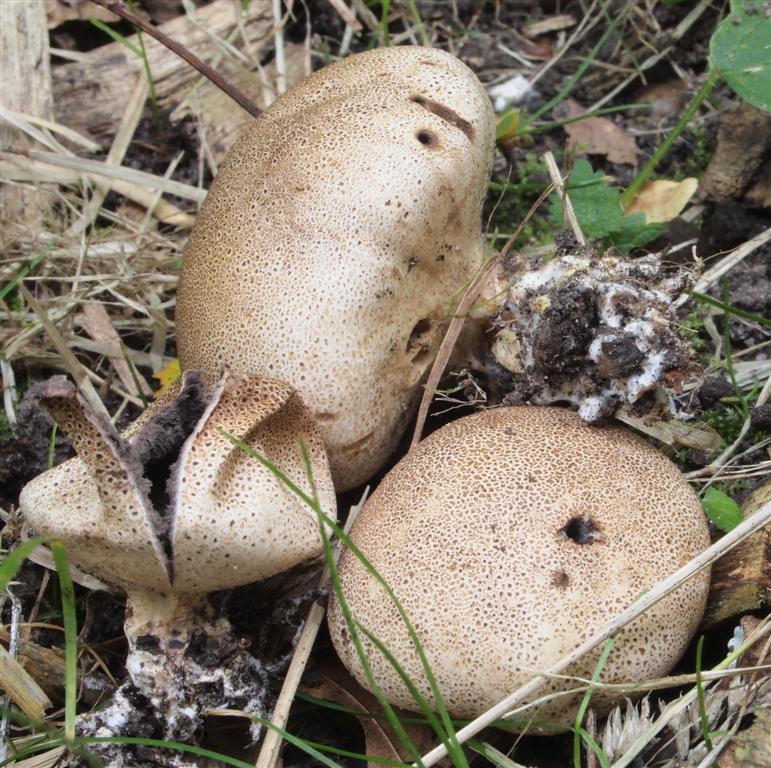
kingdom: Fungi
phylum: Basidiomycota
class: Agaricomycetes
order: Boletales
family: Sclerodermataceae
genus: Scleroderma
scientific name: Scleroderma verrucosum
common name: stilket bruskbold
